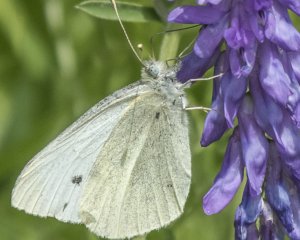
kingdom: Animalia
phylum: Arthropoda
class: Insecta
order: Lepidoptera
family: Pieridae
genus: Pieris
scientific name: Pieris rapae
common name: Cabbage White
